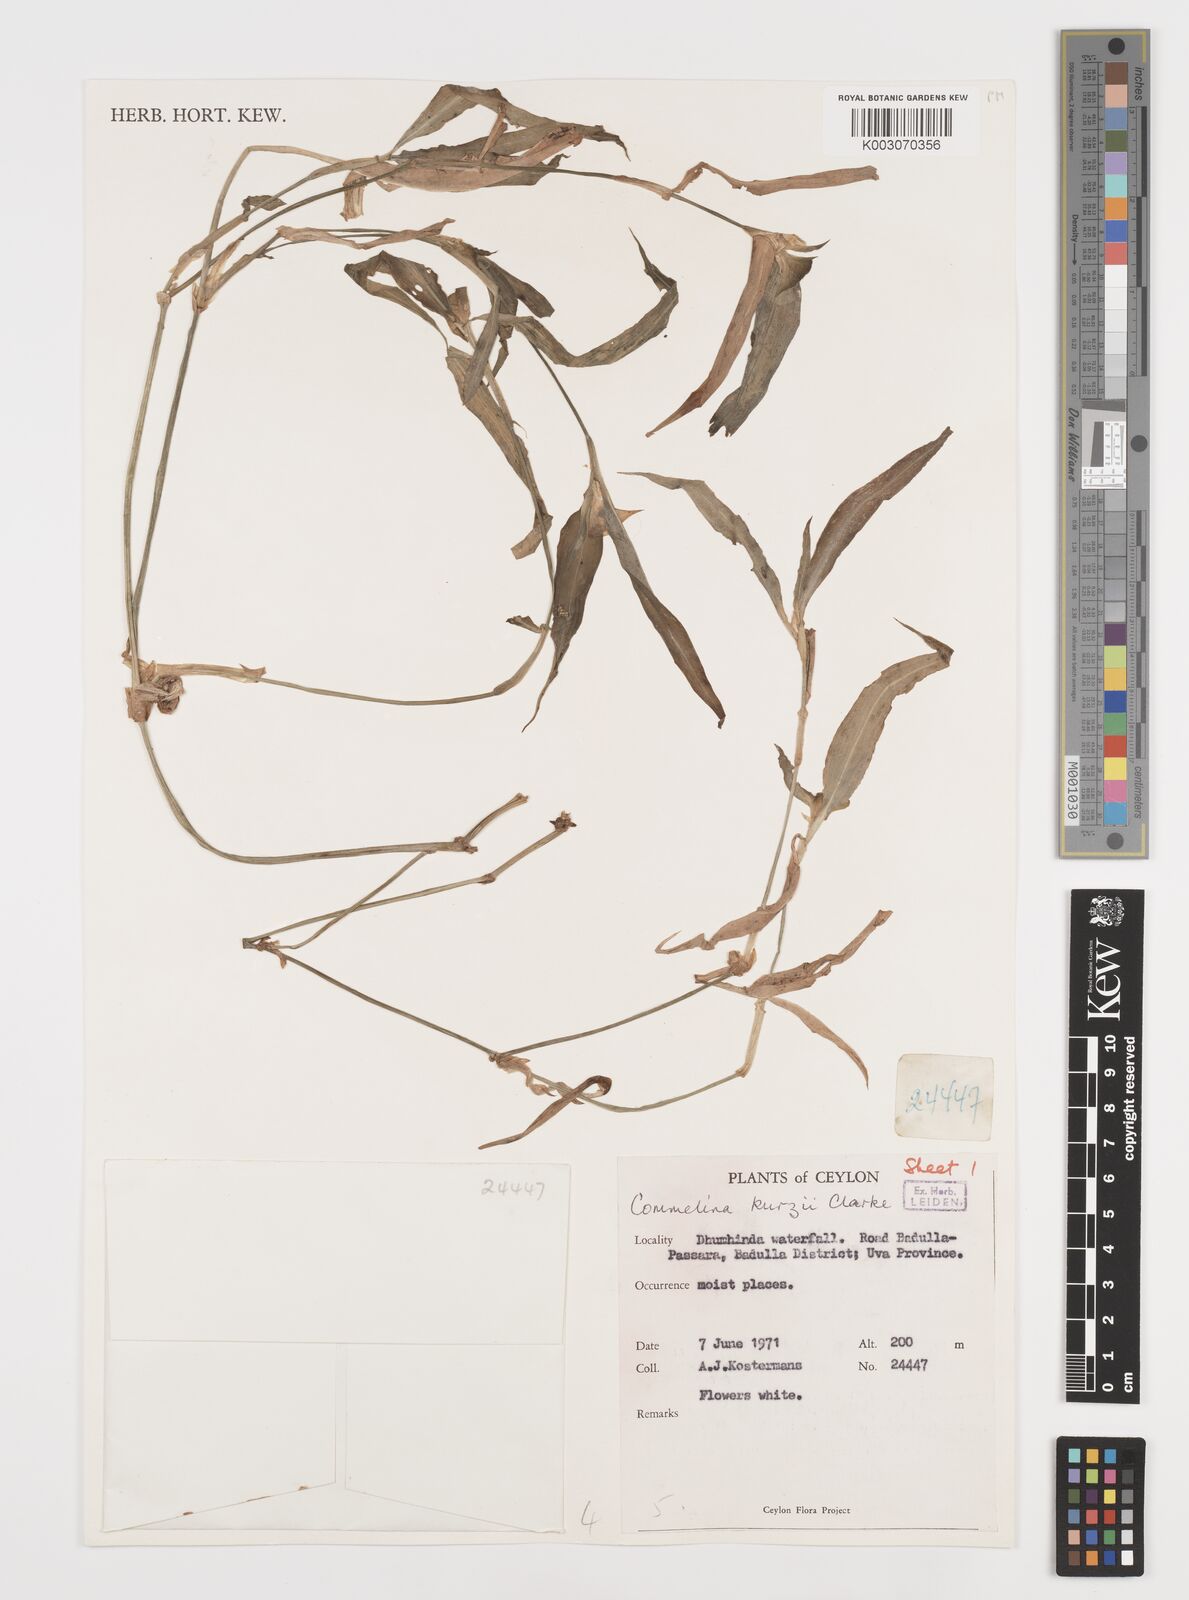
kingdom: Plantae
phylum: Tracheophyta
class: Liliopsida
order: Commelinales
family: Commelinaceae
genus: Commelina
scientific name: Commelina undulata
